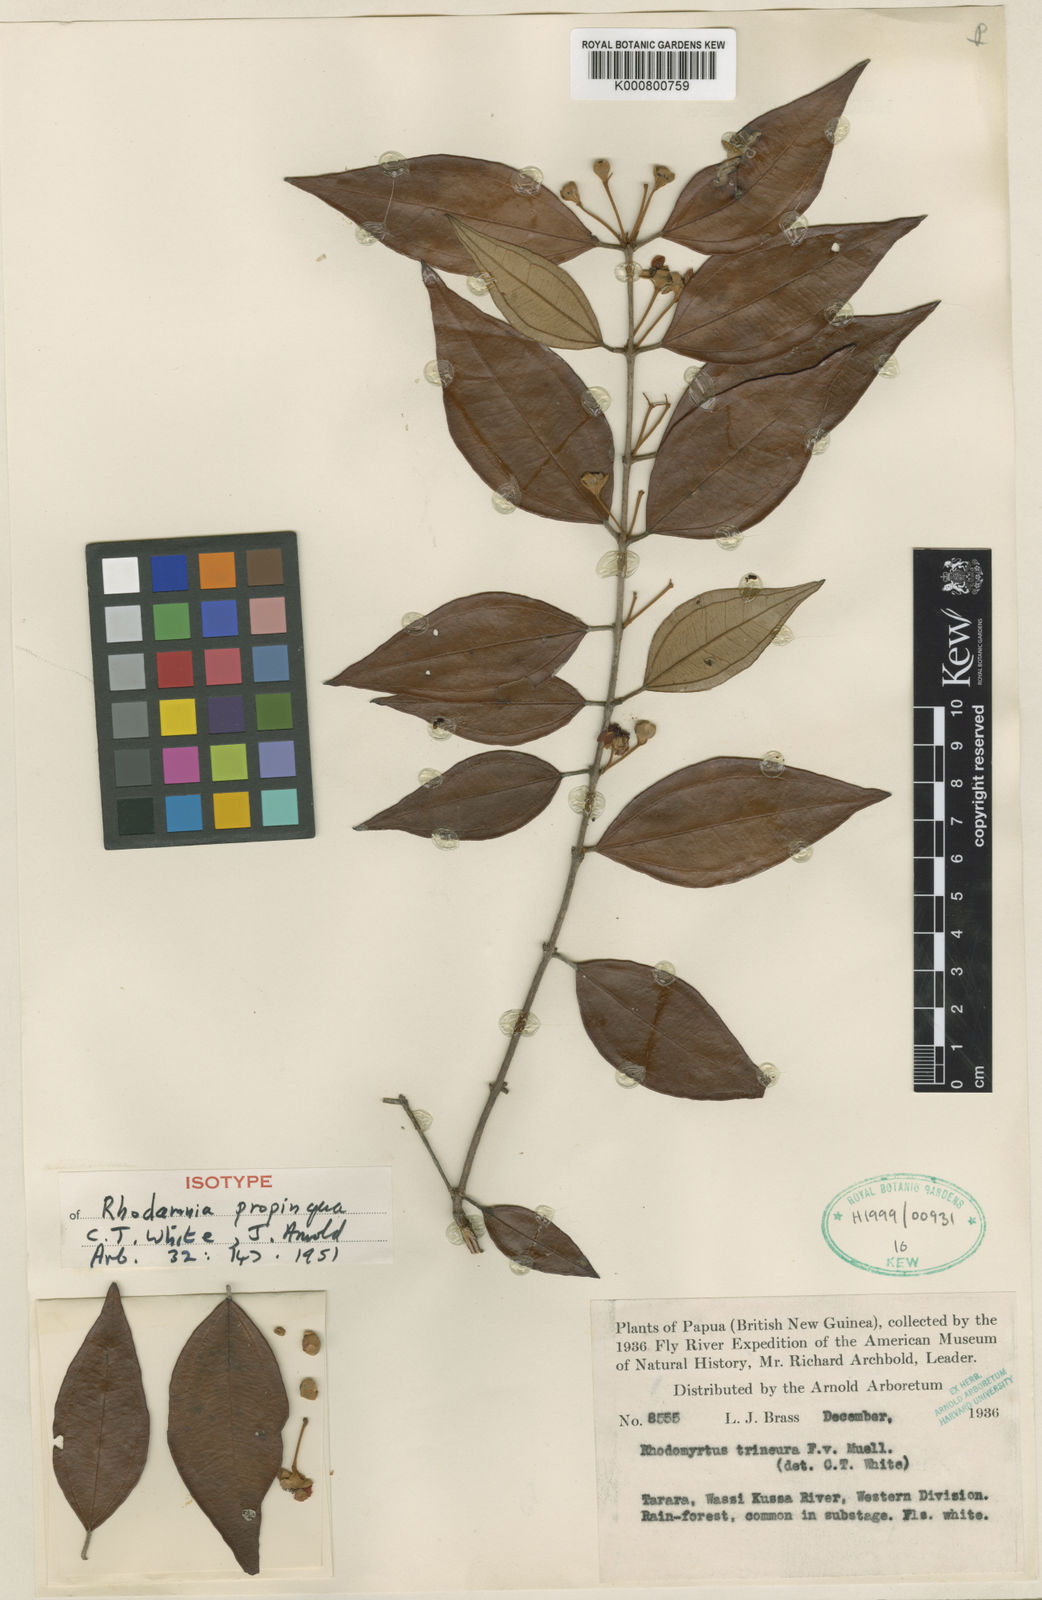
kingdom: Plantae
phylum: Tracheophyta
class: Magnoliopsida
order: Myrtales
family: Myrtaceae
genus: Rhodamnia
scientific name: Rhodamnia blairiana
